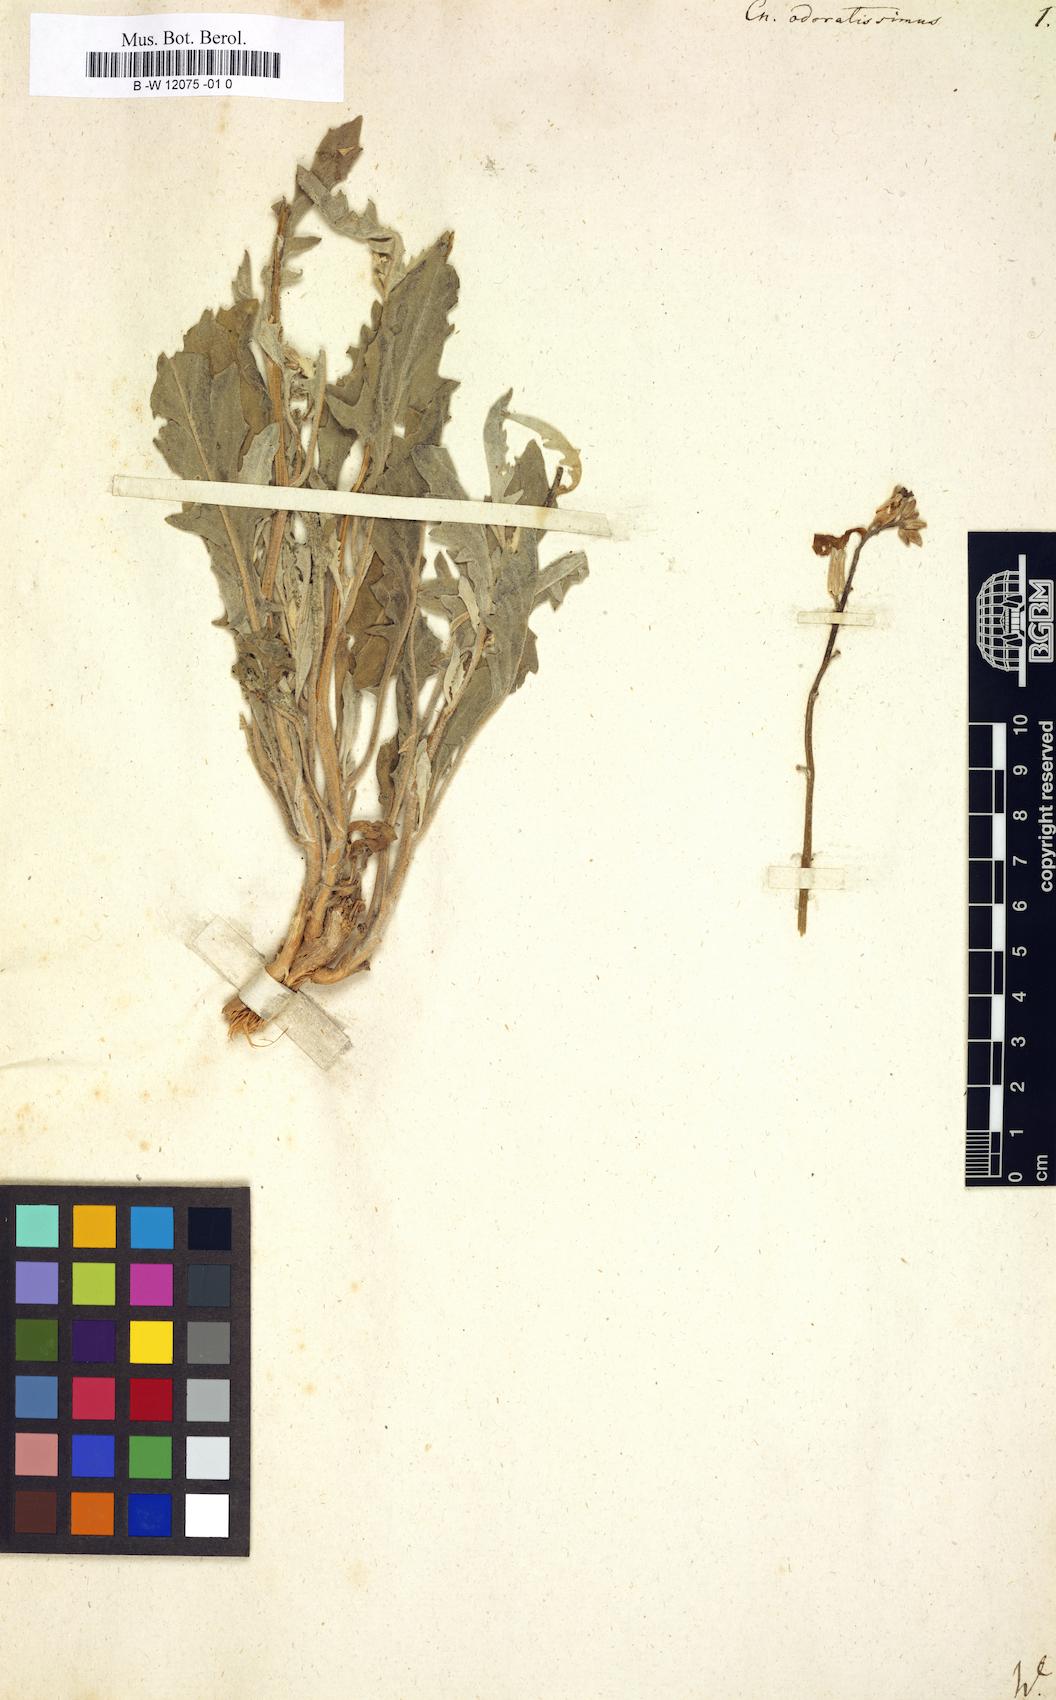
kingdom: Plantae
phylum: Tracheophyta
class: Magnoliopsida
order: Brassicales
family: Brassicaceae
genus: Matthiola
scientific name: Matthiola odoratissima
